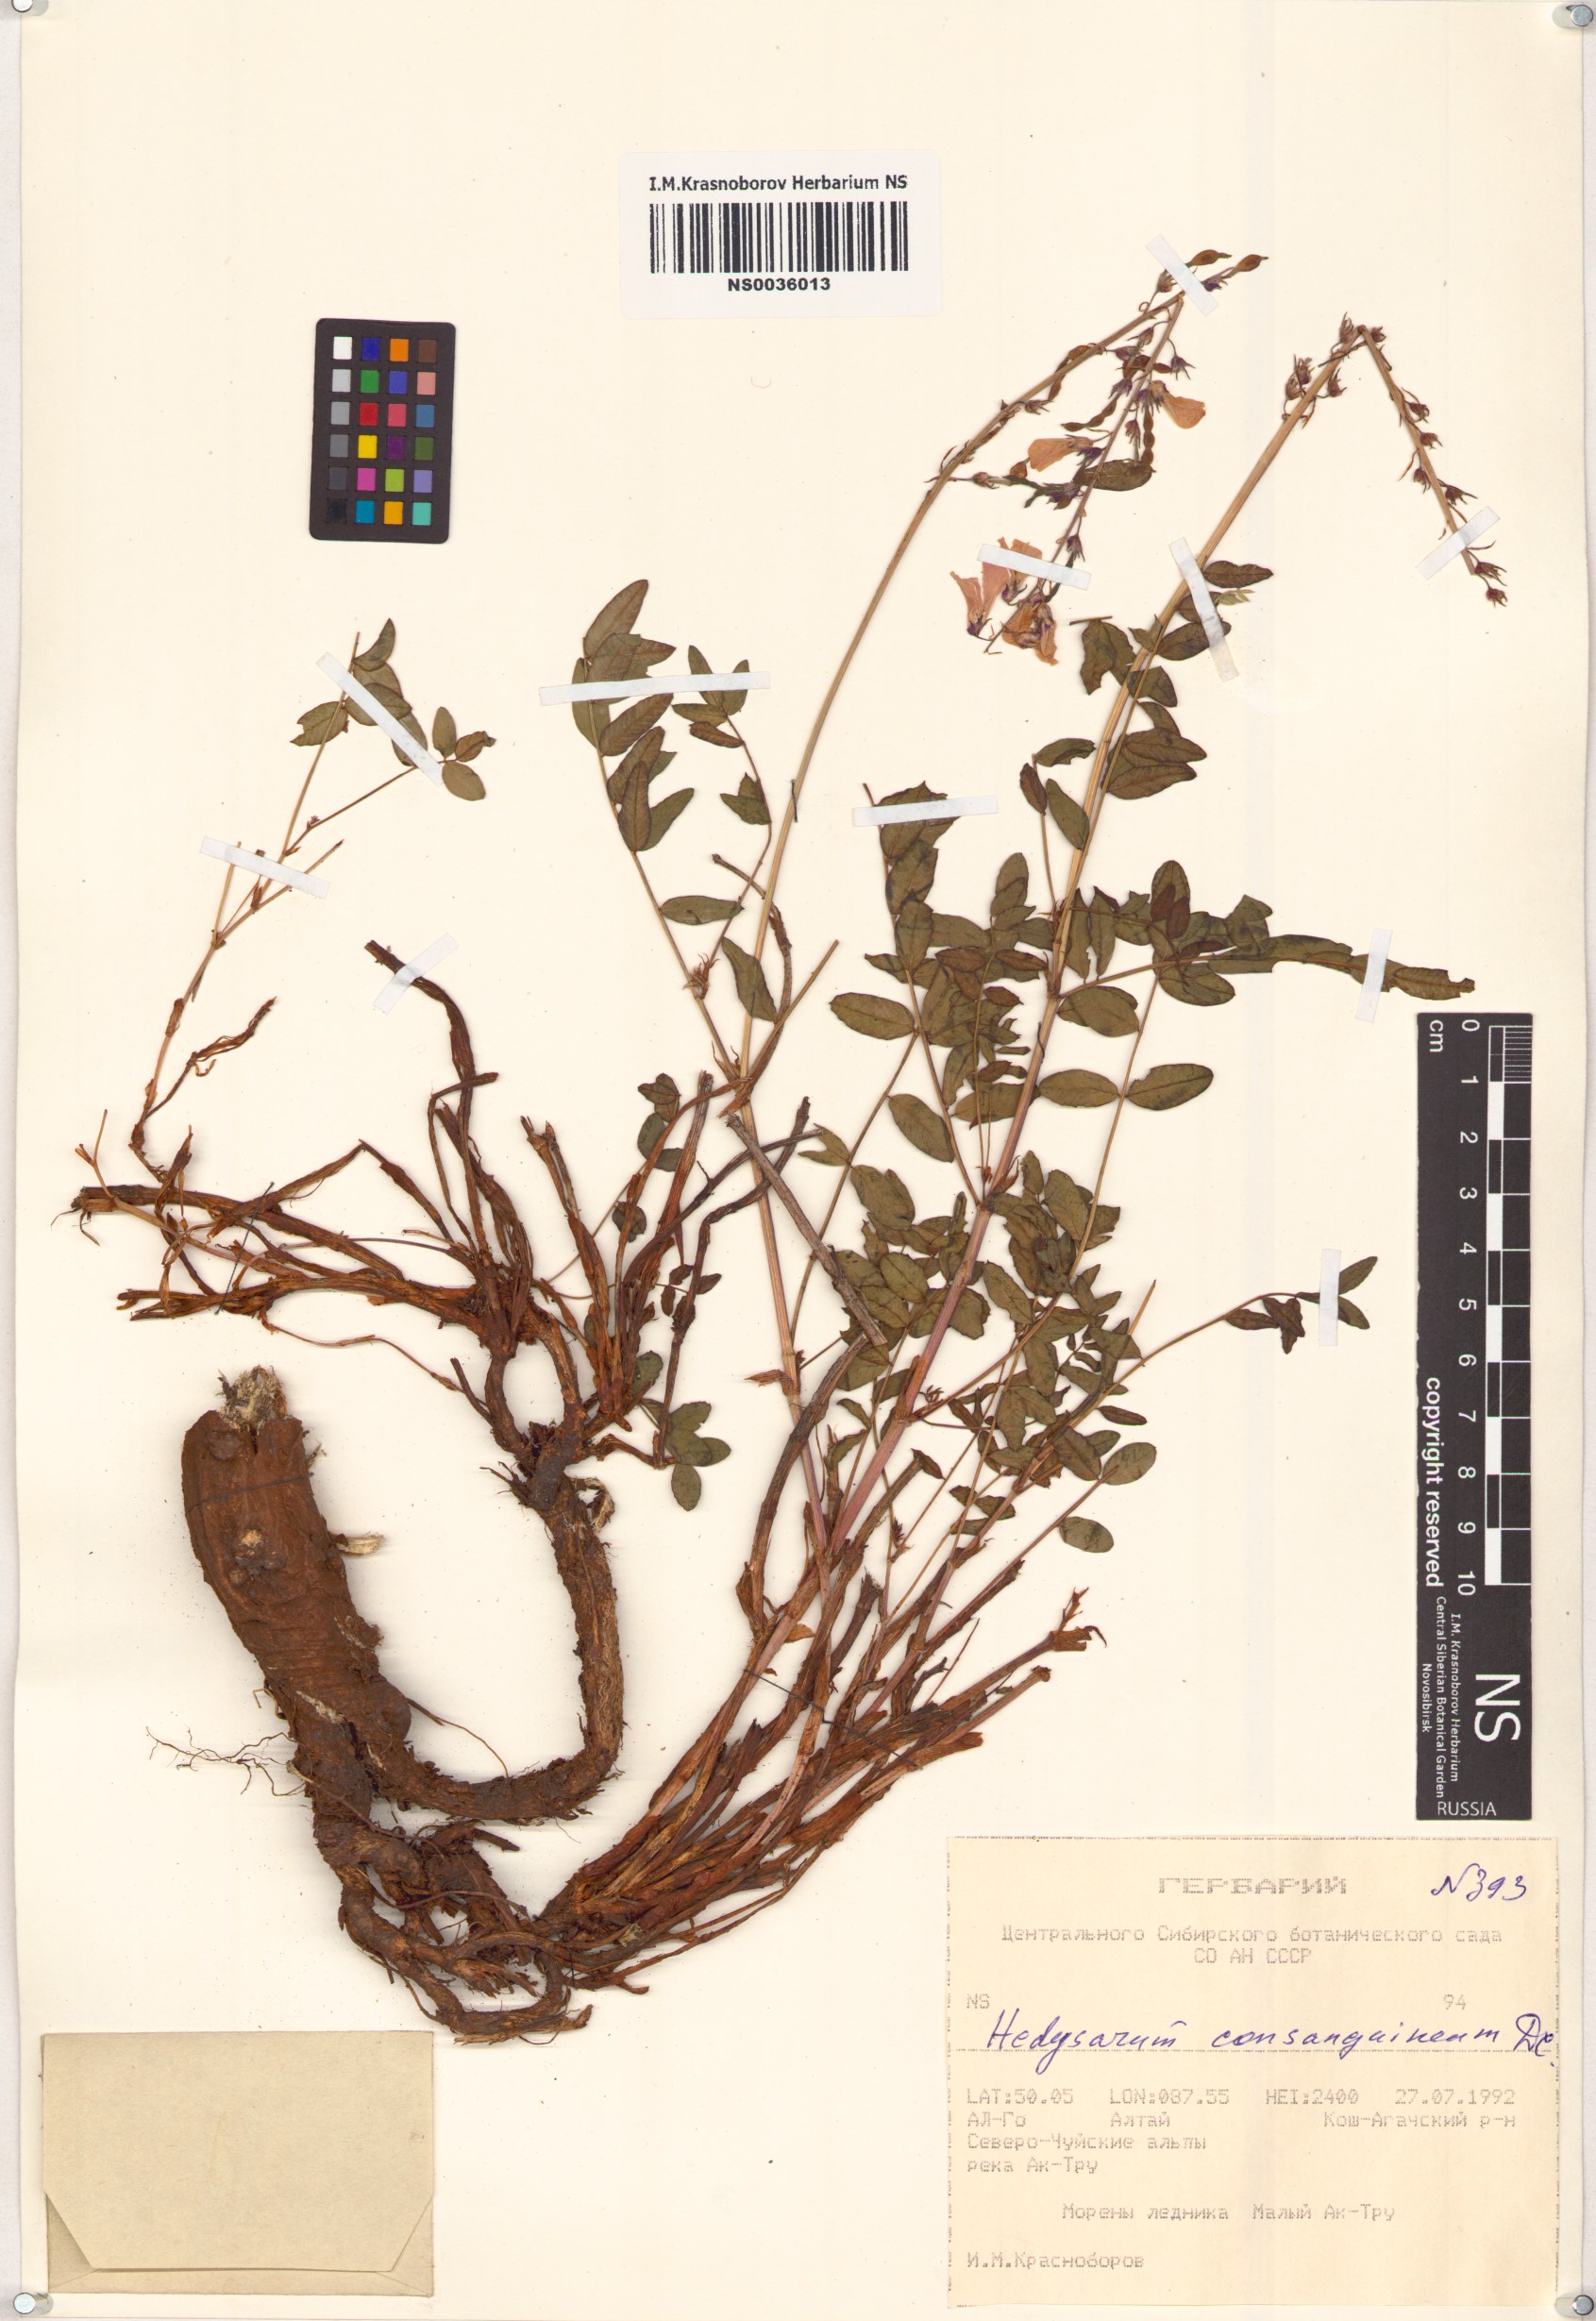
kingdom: Plantae
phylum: Tracheophyta
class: Magnoliopsida
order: Fabales
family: Fabaceae
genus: Hedysarum
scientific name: Hedysarum consanguineum
